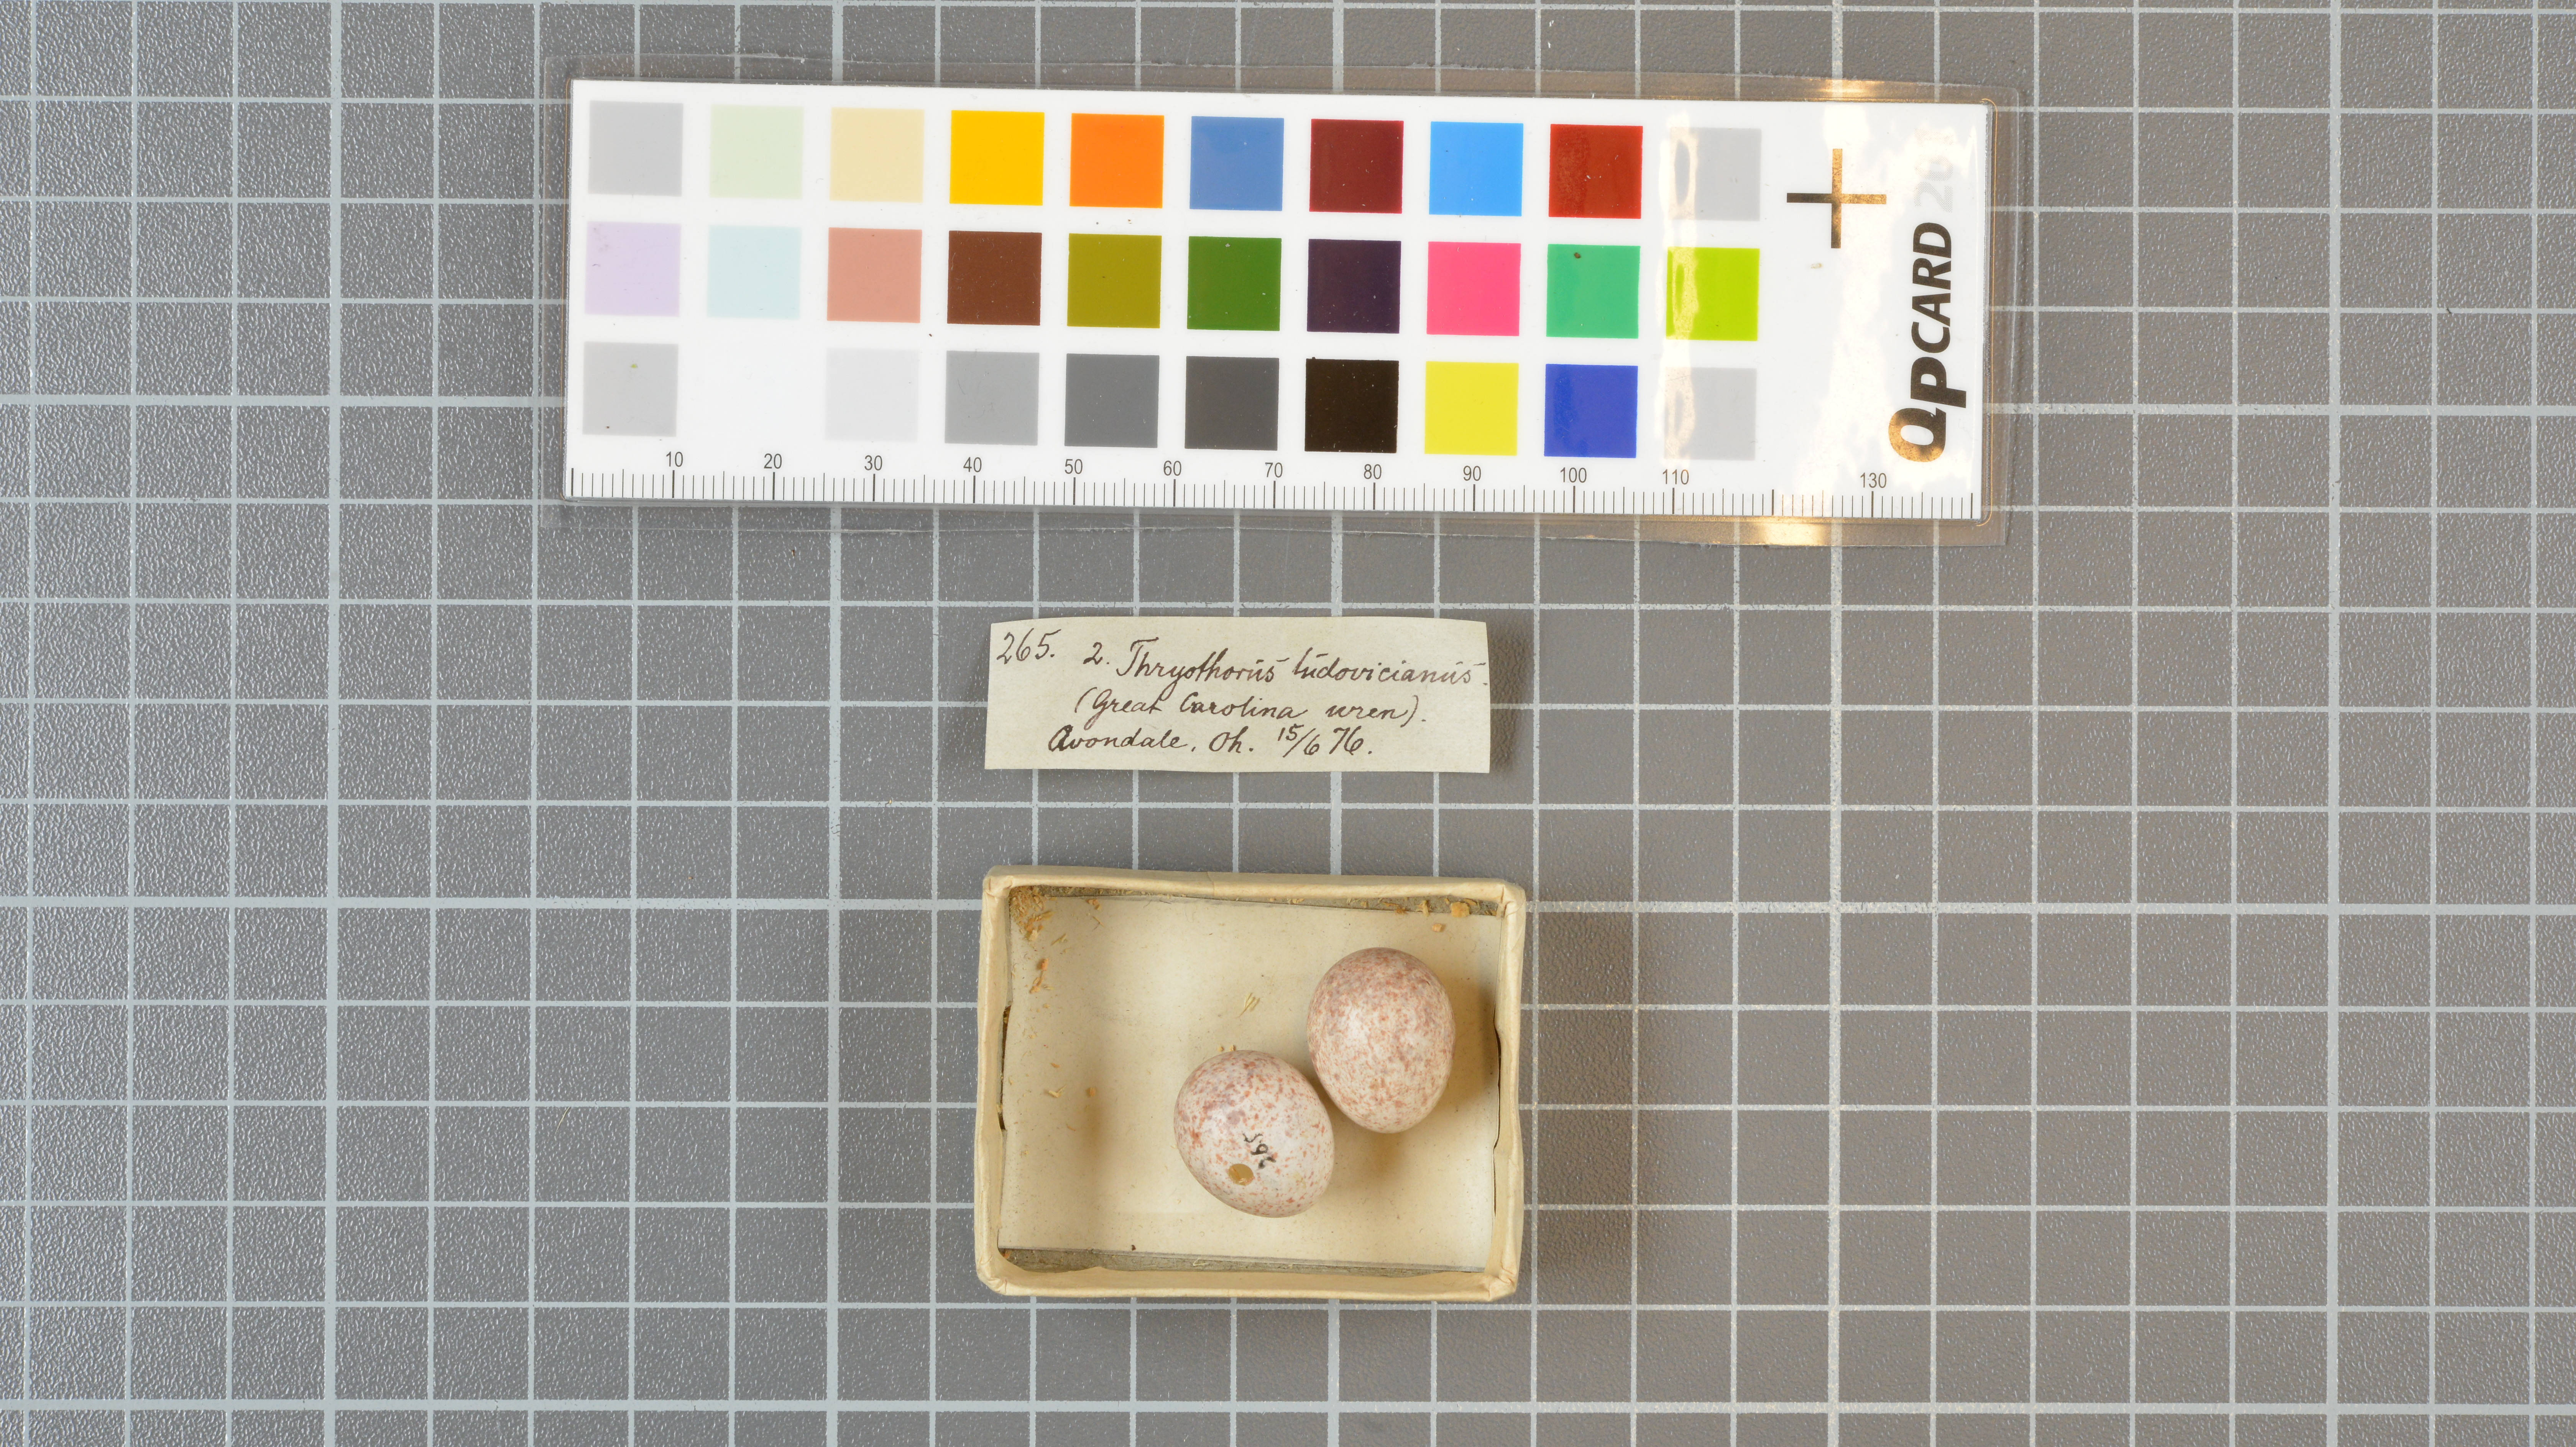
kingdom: Animalia
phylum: Chordata
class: Aves
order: Passeriformes
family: Troglodytidae
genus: Thryothorus
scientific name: Thryothorus ludovicianus
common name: Carolina wren
